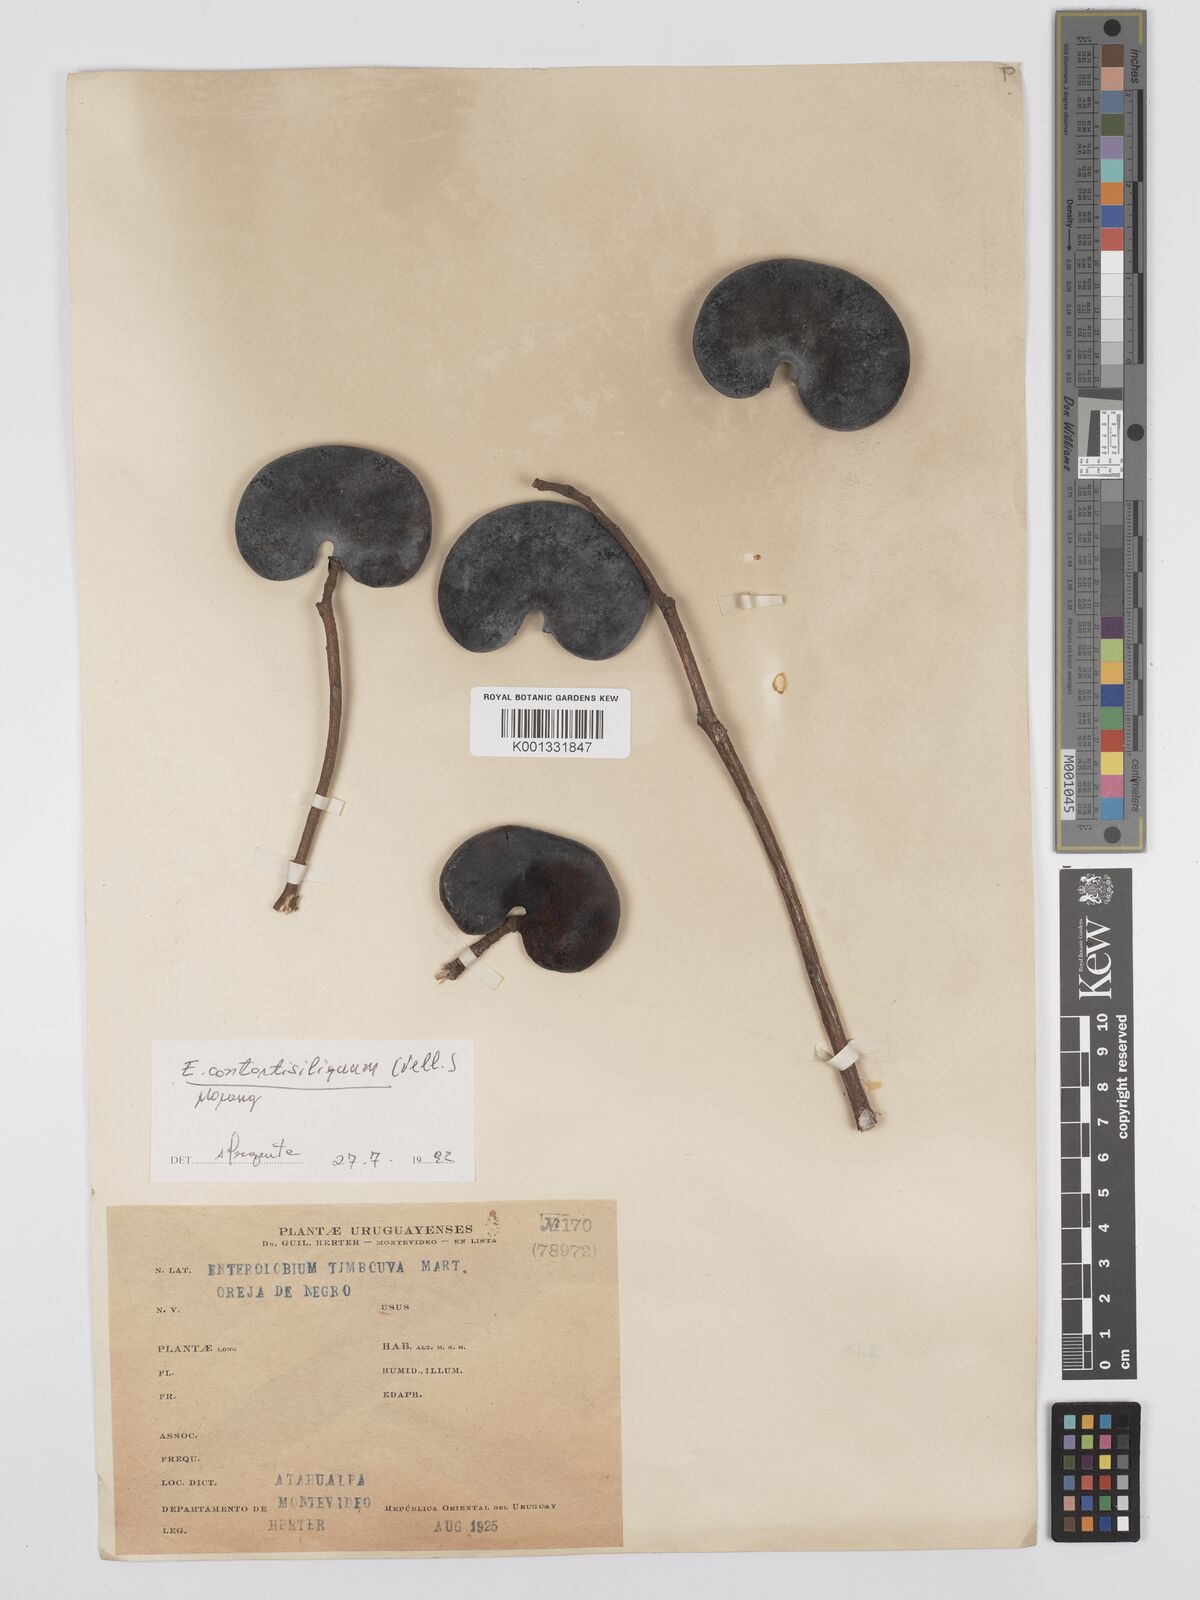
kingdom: Plantae
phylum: Tracheophyta
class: Magnoliopsida
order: Fabales
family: Fabaceae
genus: Enterolobium
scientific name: Enterolobium contortisiliquum
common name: Pacara earpod tree
